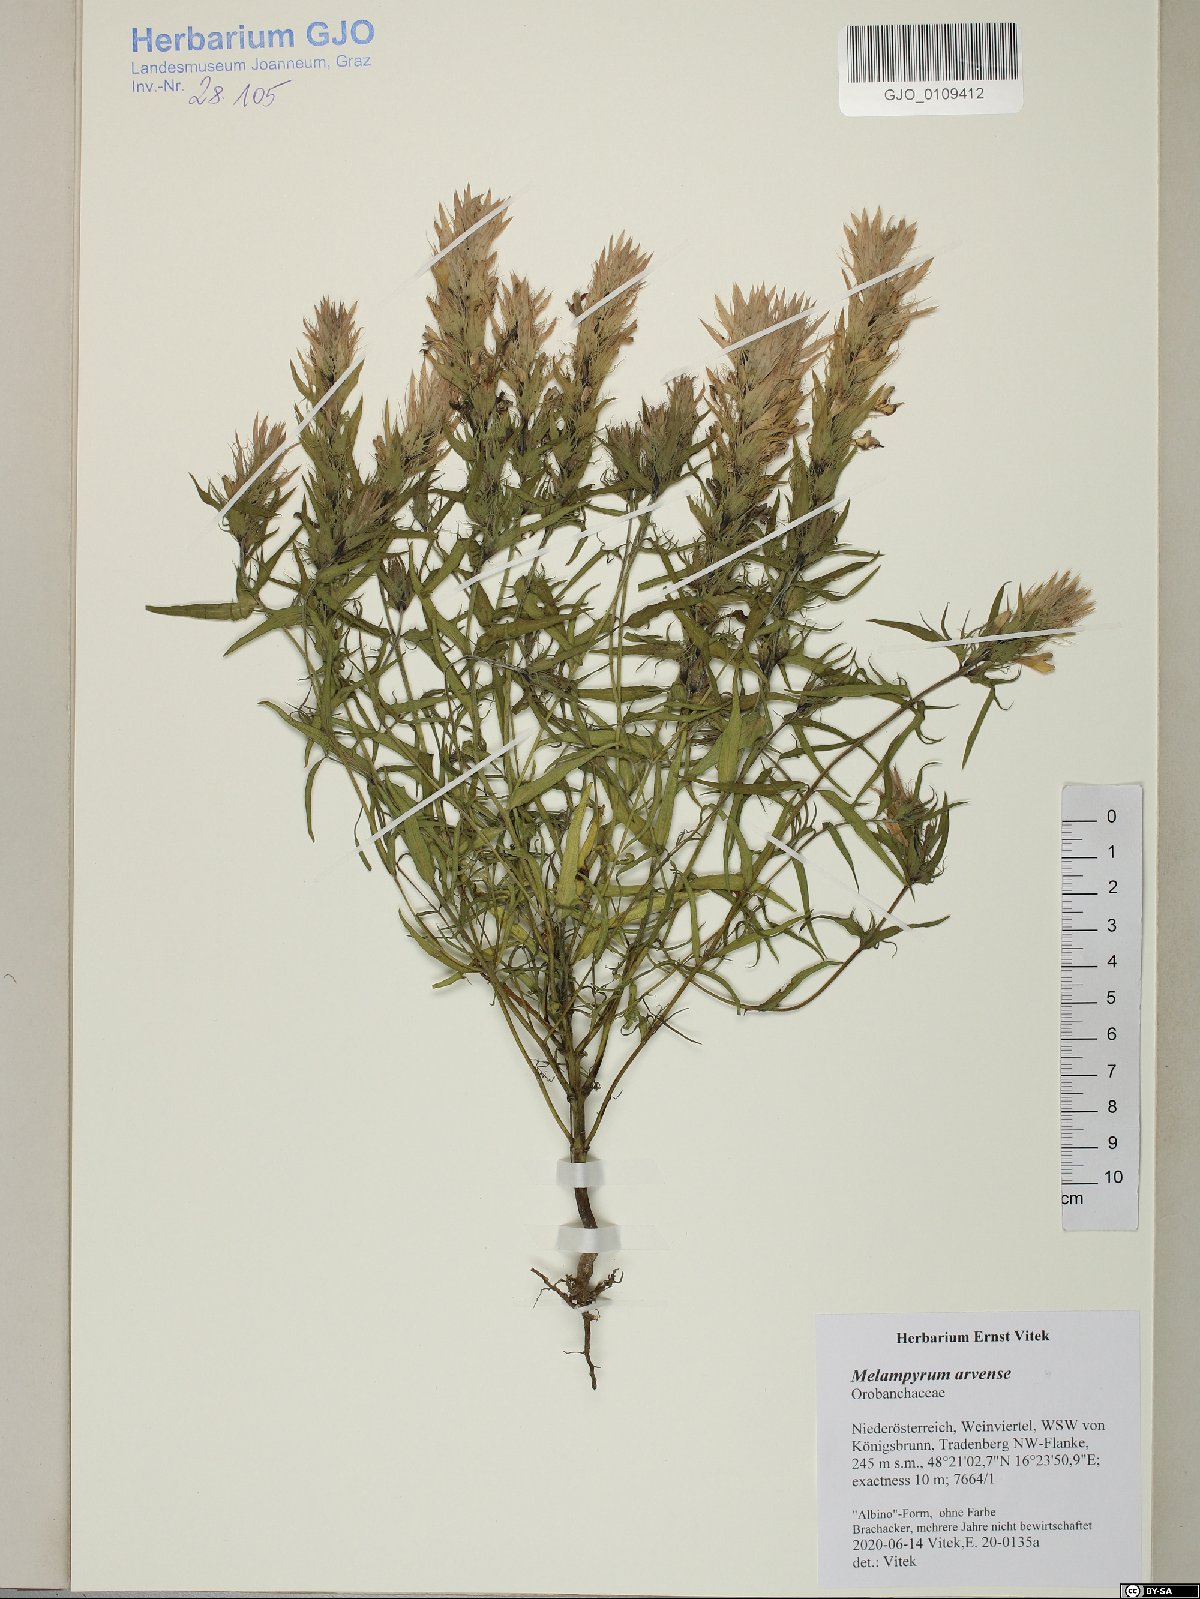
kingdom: Plantae
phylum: Tracheophyta
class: Magnoliopsida
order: Lamiales
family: Orobanchaceae
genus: Melampyrum
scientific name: Melampyrum arvense
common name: Field cow-wheat
